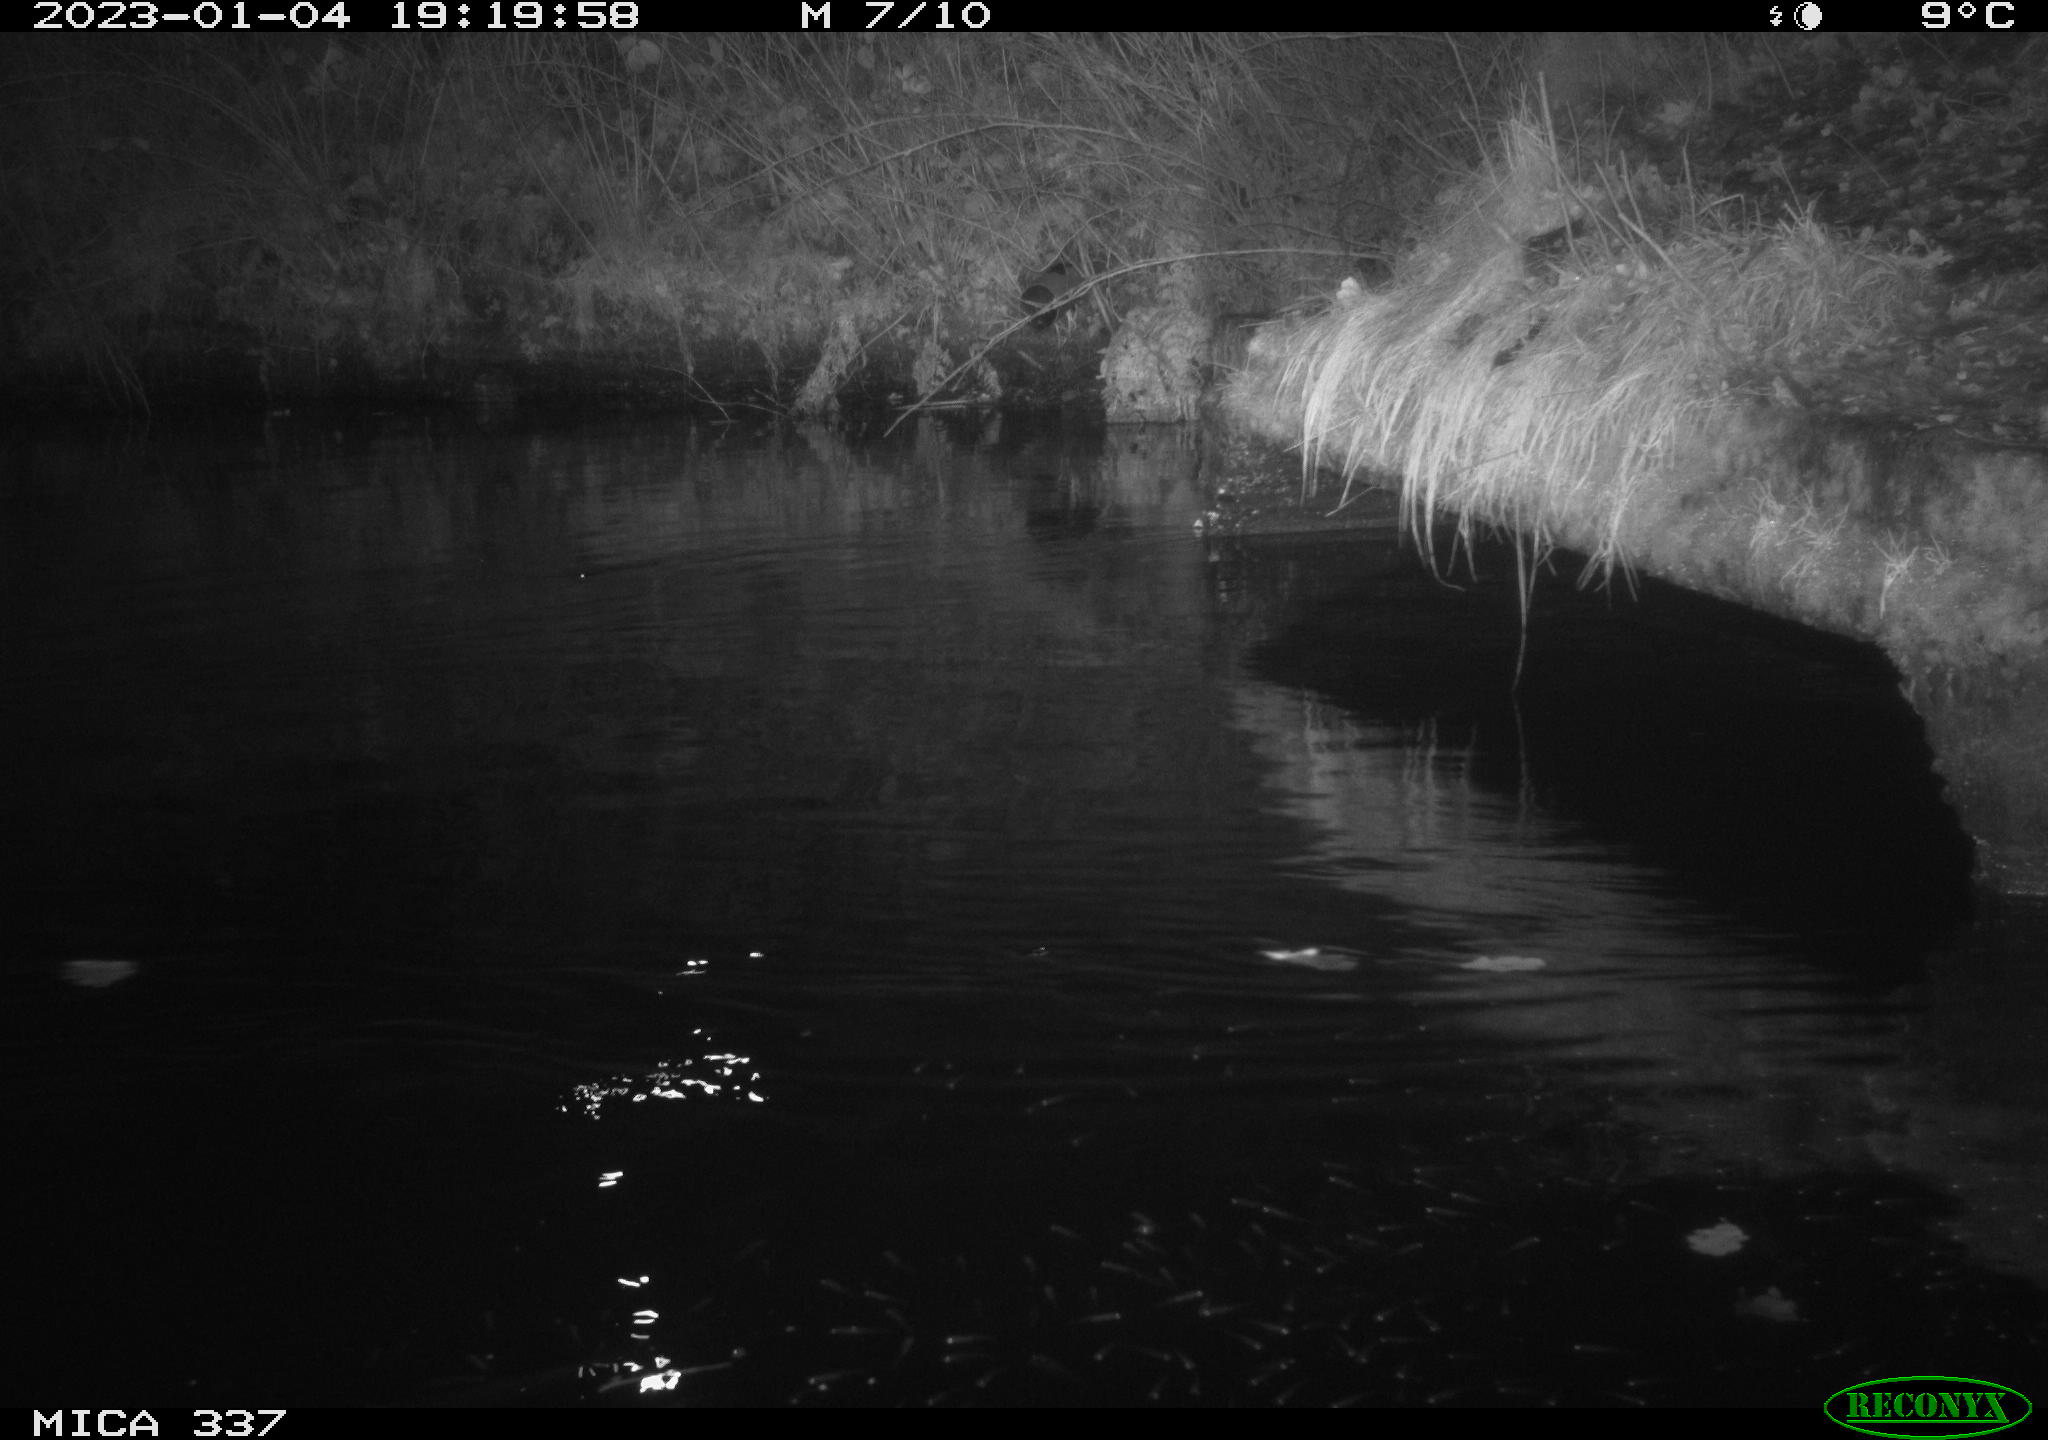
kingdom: Animalia
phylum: Chordata
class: Aves
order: Anseriformes
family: Anatidae
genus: Anas
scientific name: Anas
